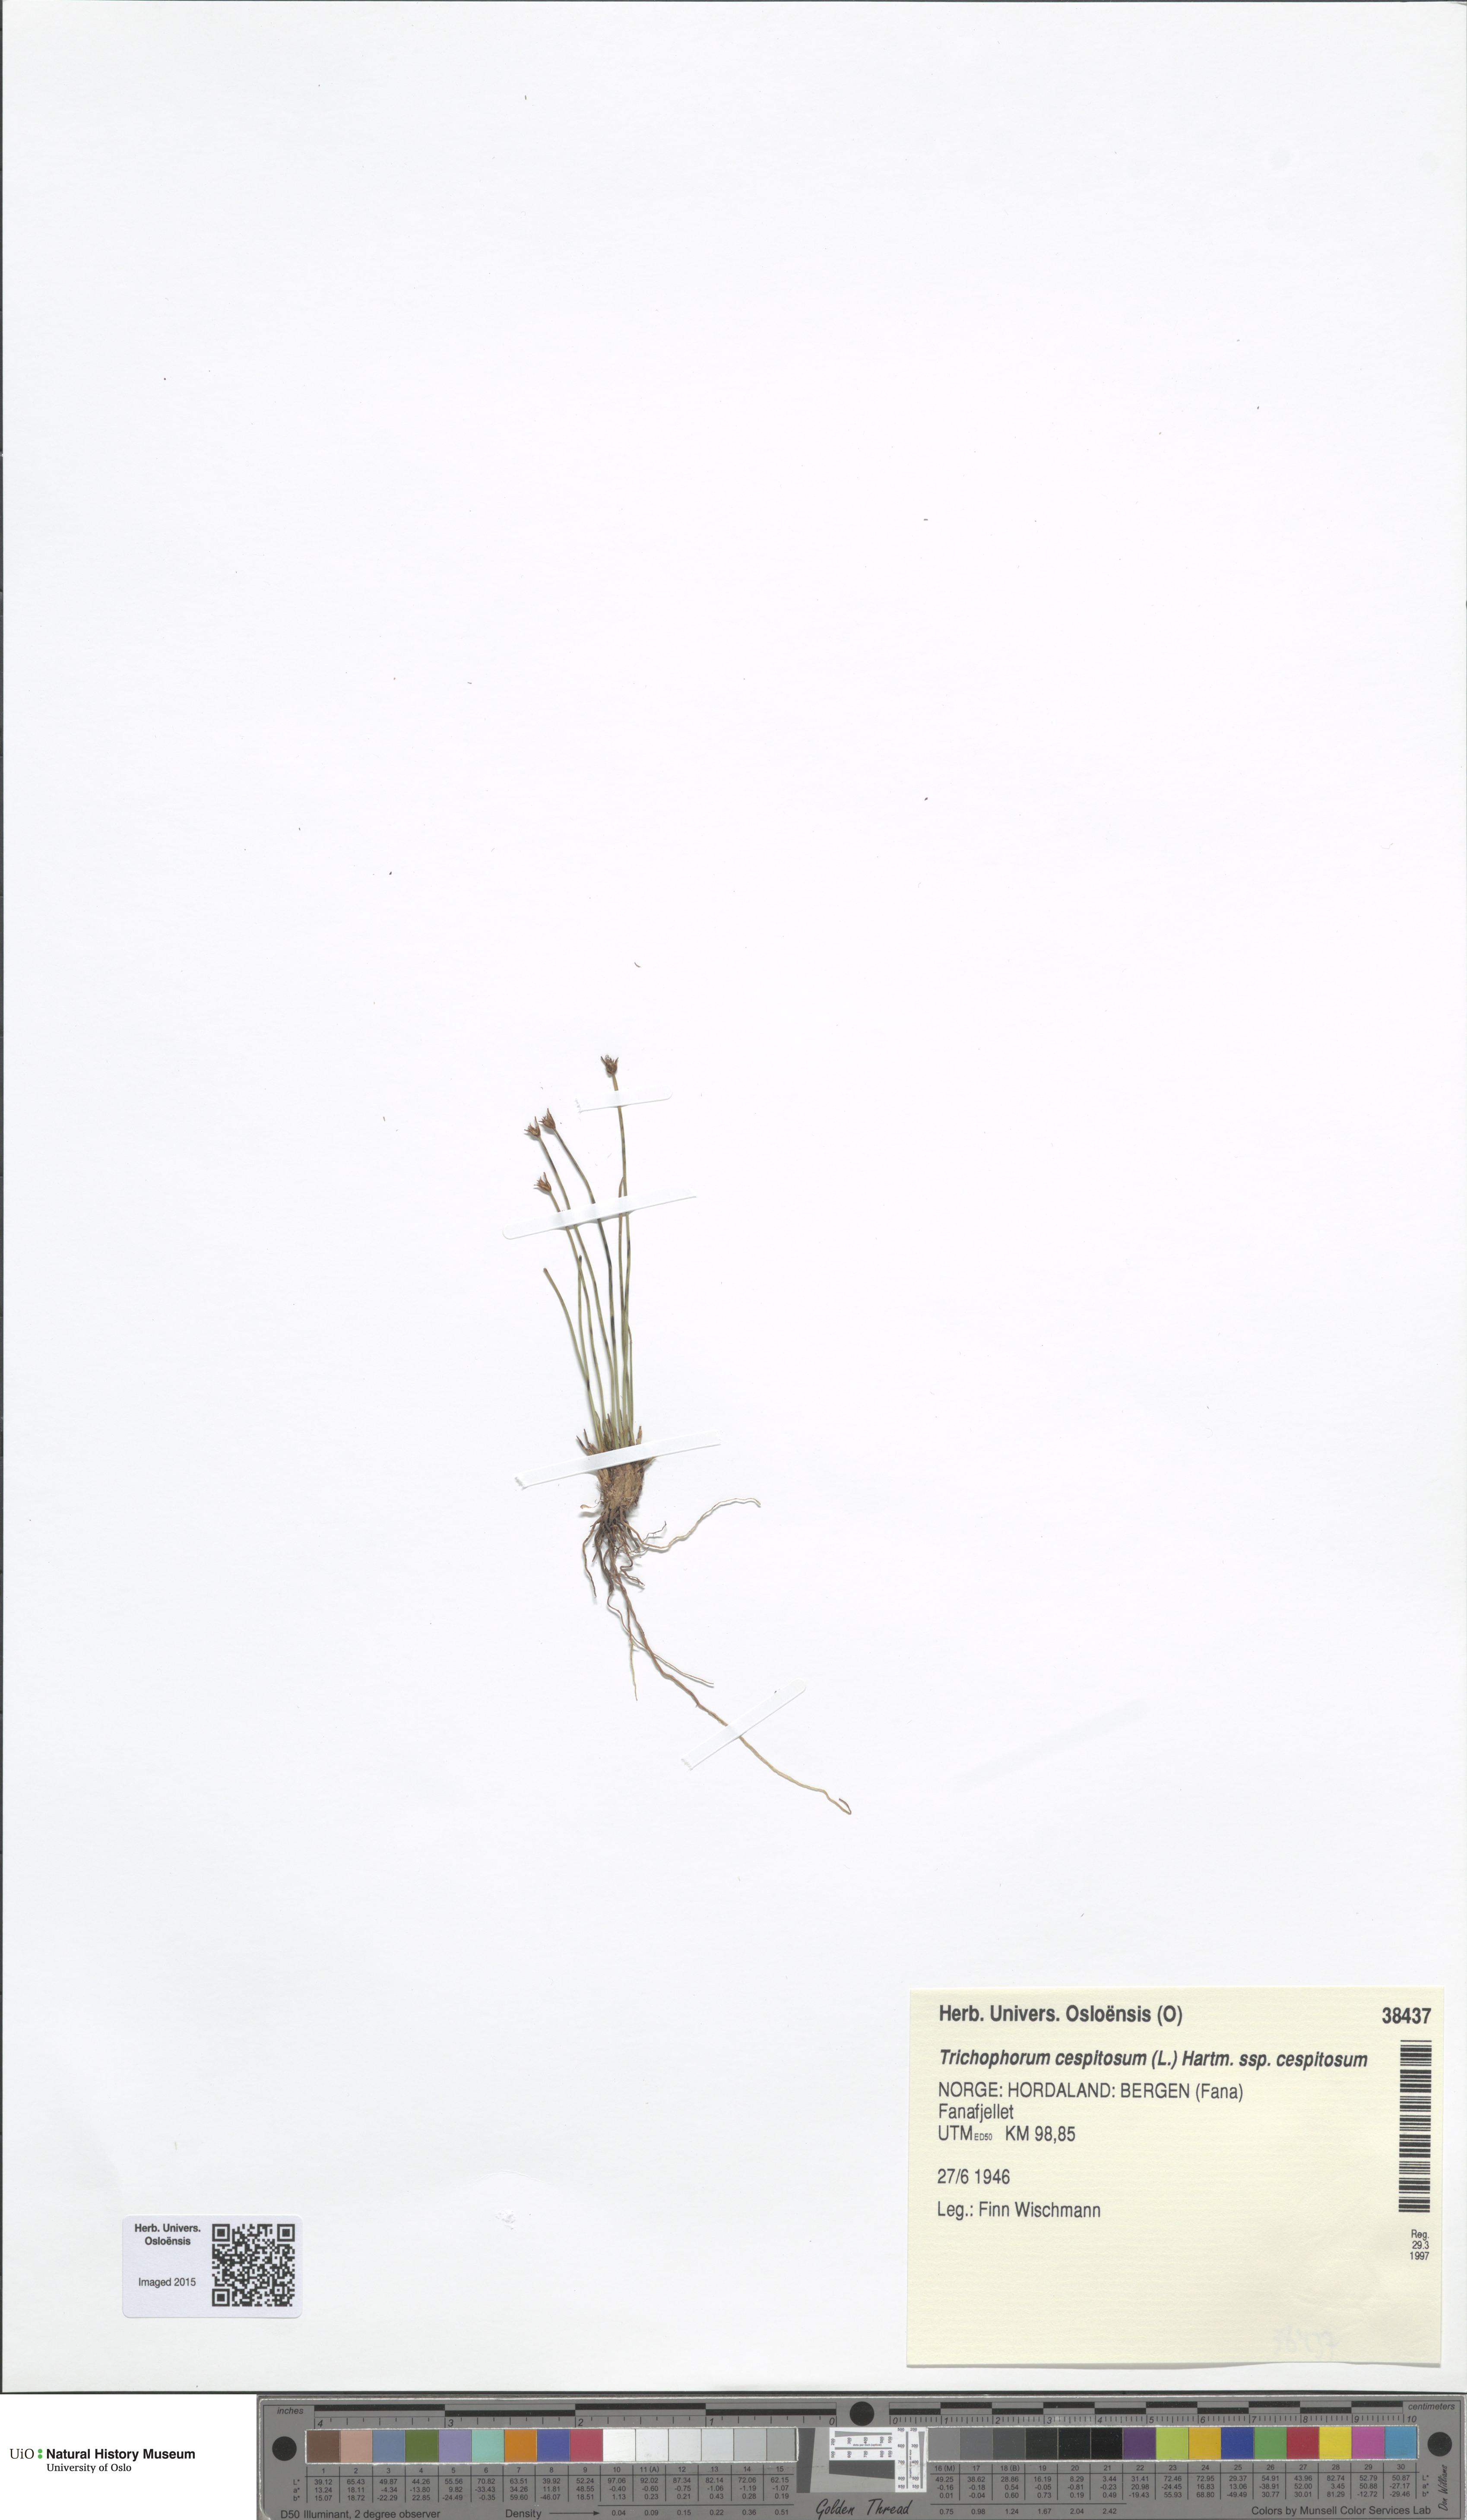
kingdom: Plantae
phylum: Tracheophyta
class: Liliopsida
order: Poales
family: Cyperaceae
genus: Trichophorum
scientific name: Trichophorum cespitosum
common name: Cespitose bulrush
